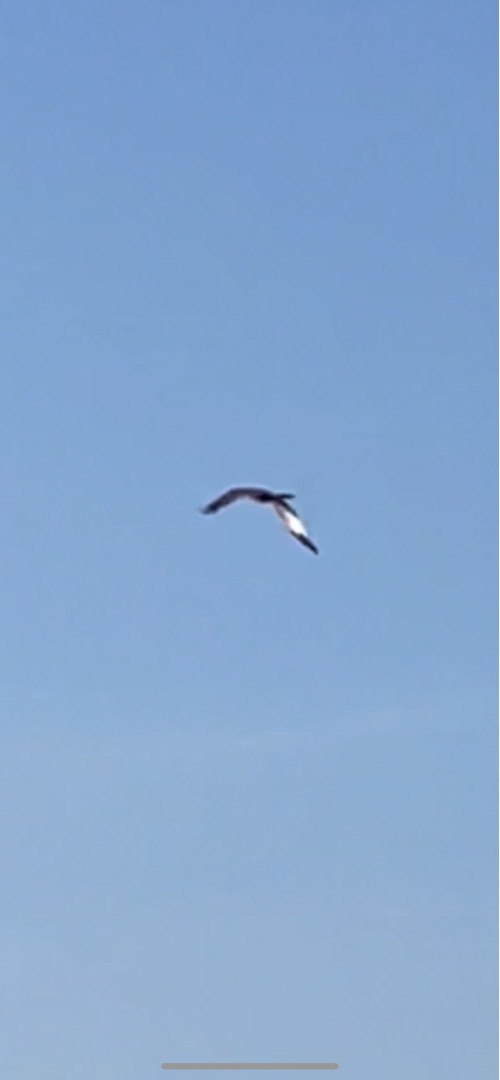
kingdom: Animalia
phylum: Chordata
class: Aves
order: Accipitriformes
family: Accipitridae
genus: Circus
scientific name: Circus aeruginosus
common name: Rørhøg
